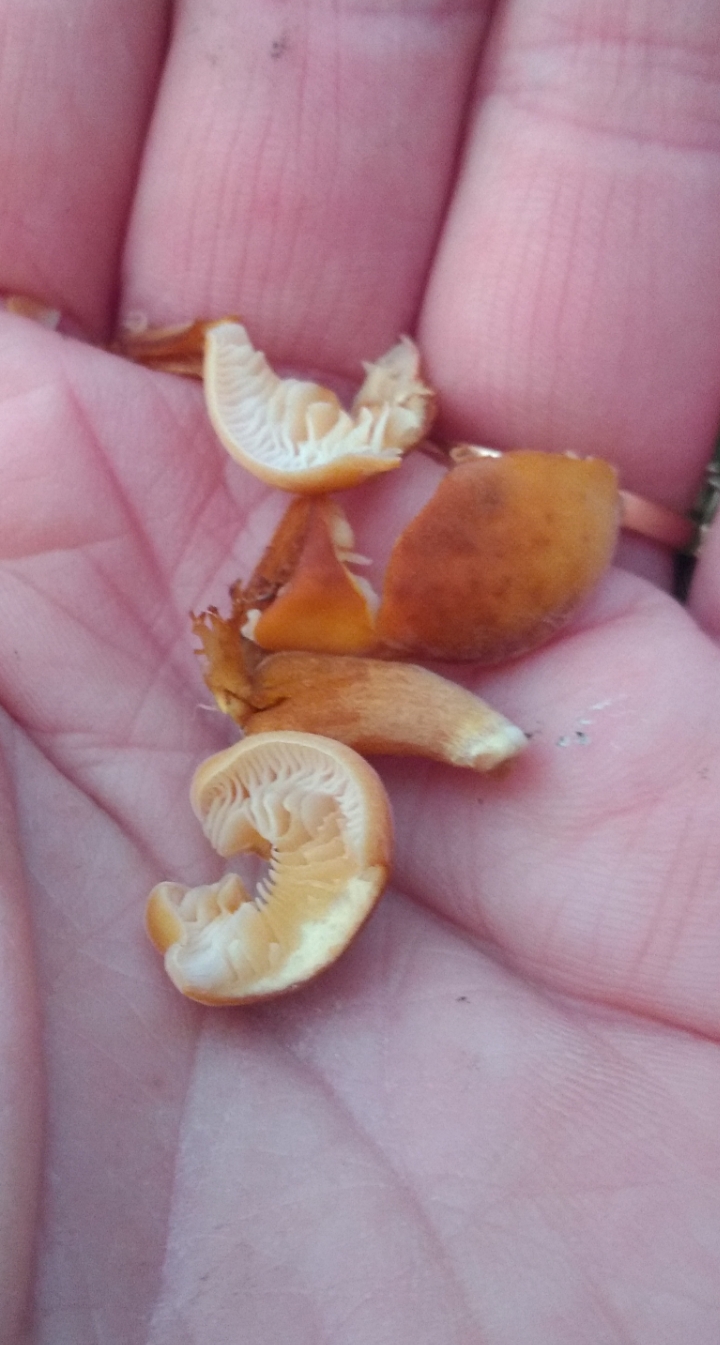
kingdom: Fungi
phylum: Basidiomycota
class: Agaricomycetes
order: Agaricales
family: Physalacriaceae
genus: Flammulina
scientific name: Flammulina
